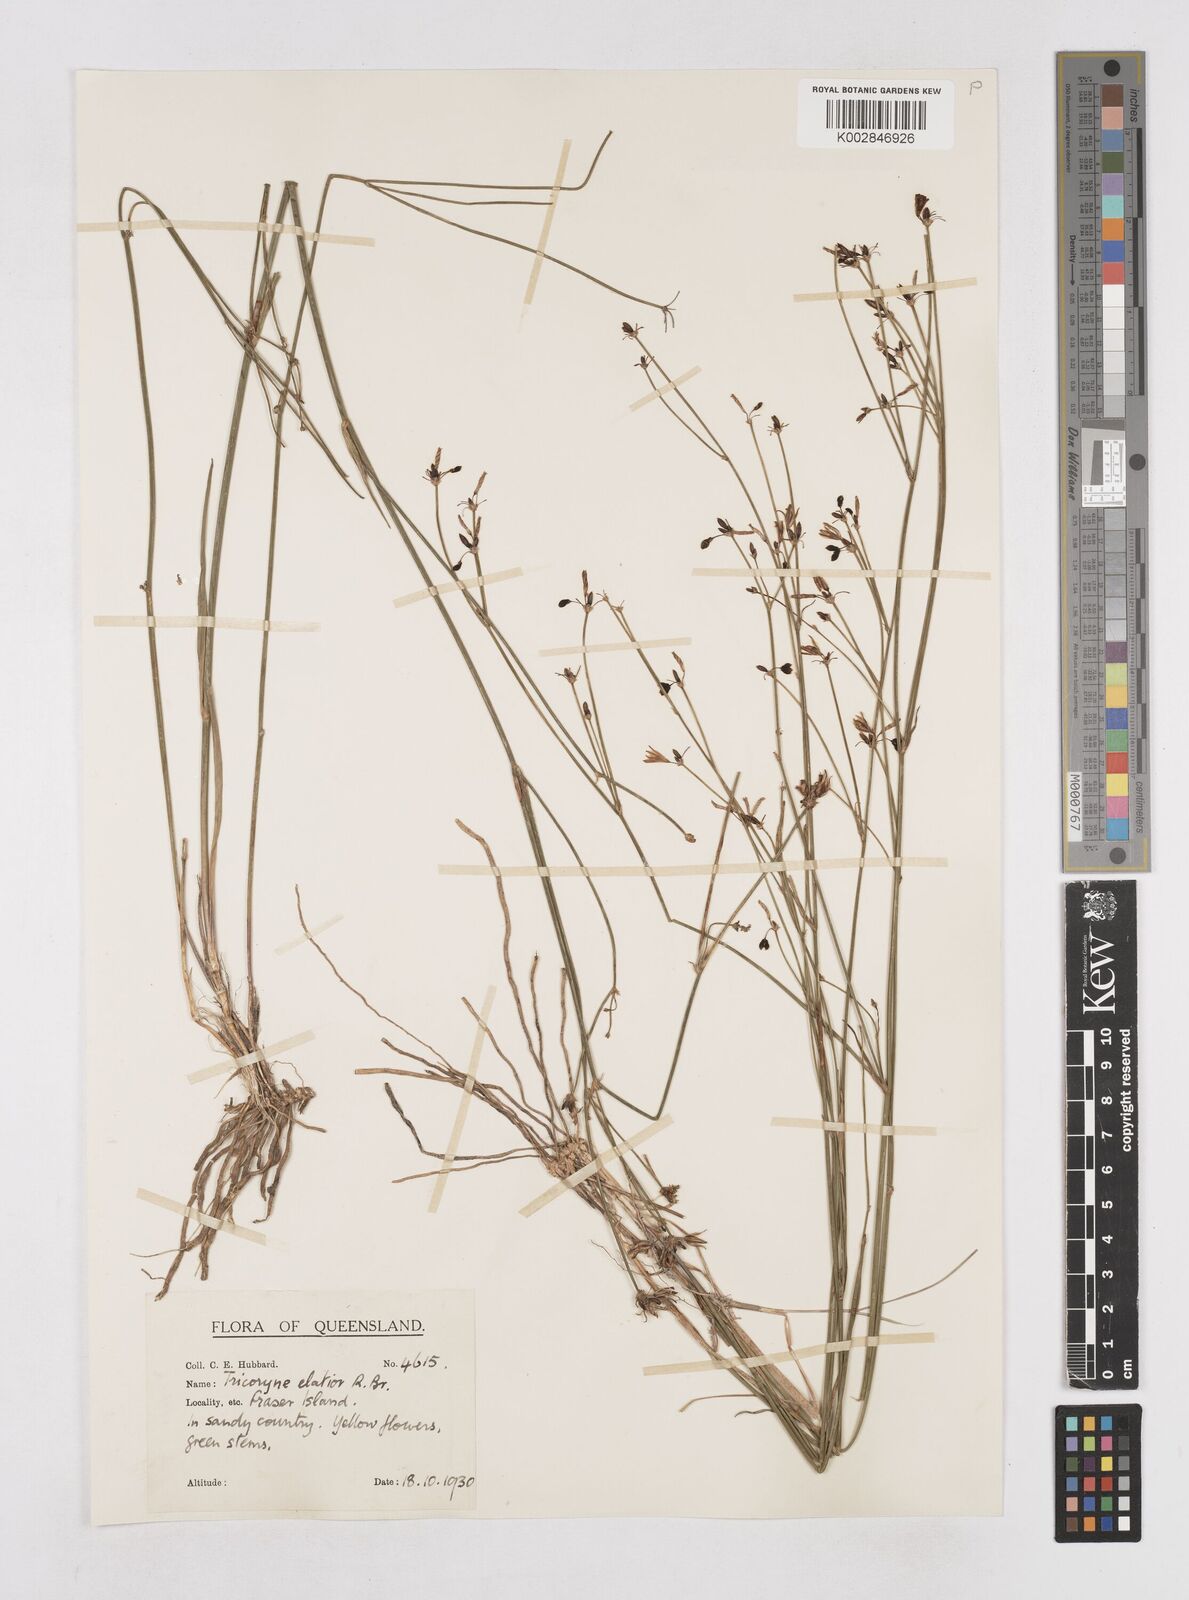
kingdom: Plantae
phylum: Tracheophyta
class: Liliopsida
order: Asparagales
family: Asphodelaceae
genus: Tricoryne
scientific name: Tricoryne elatior
